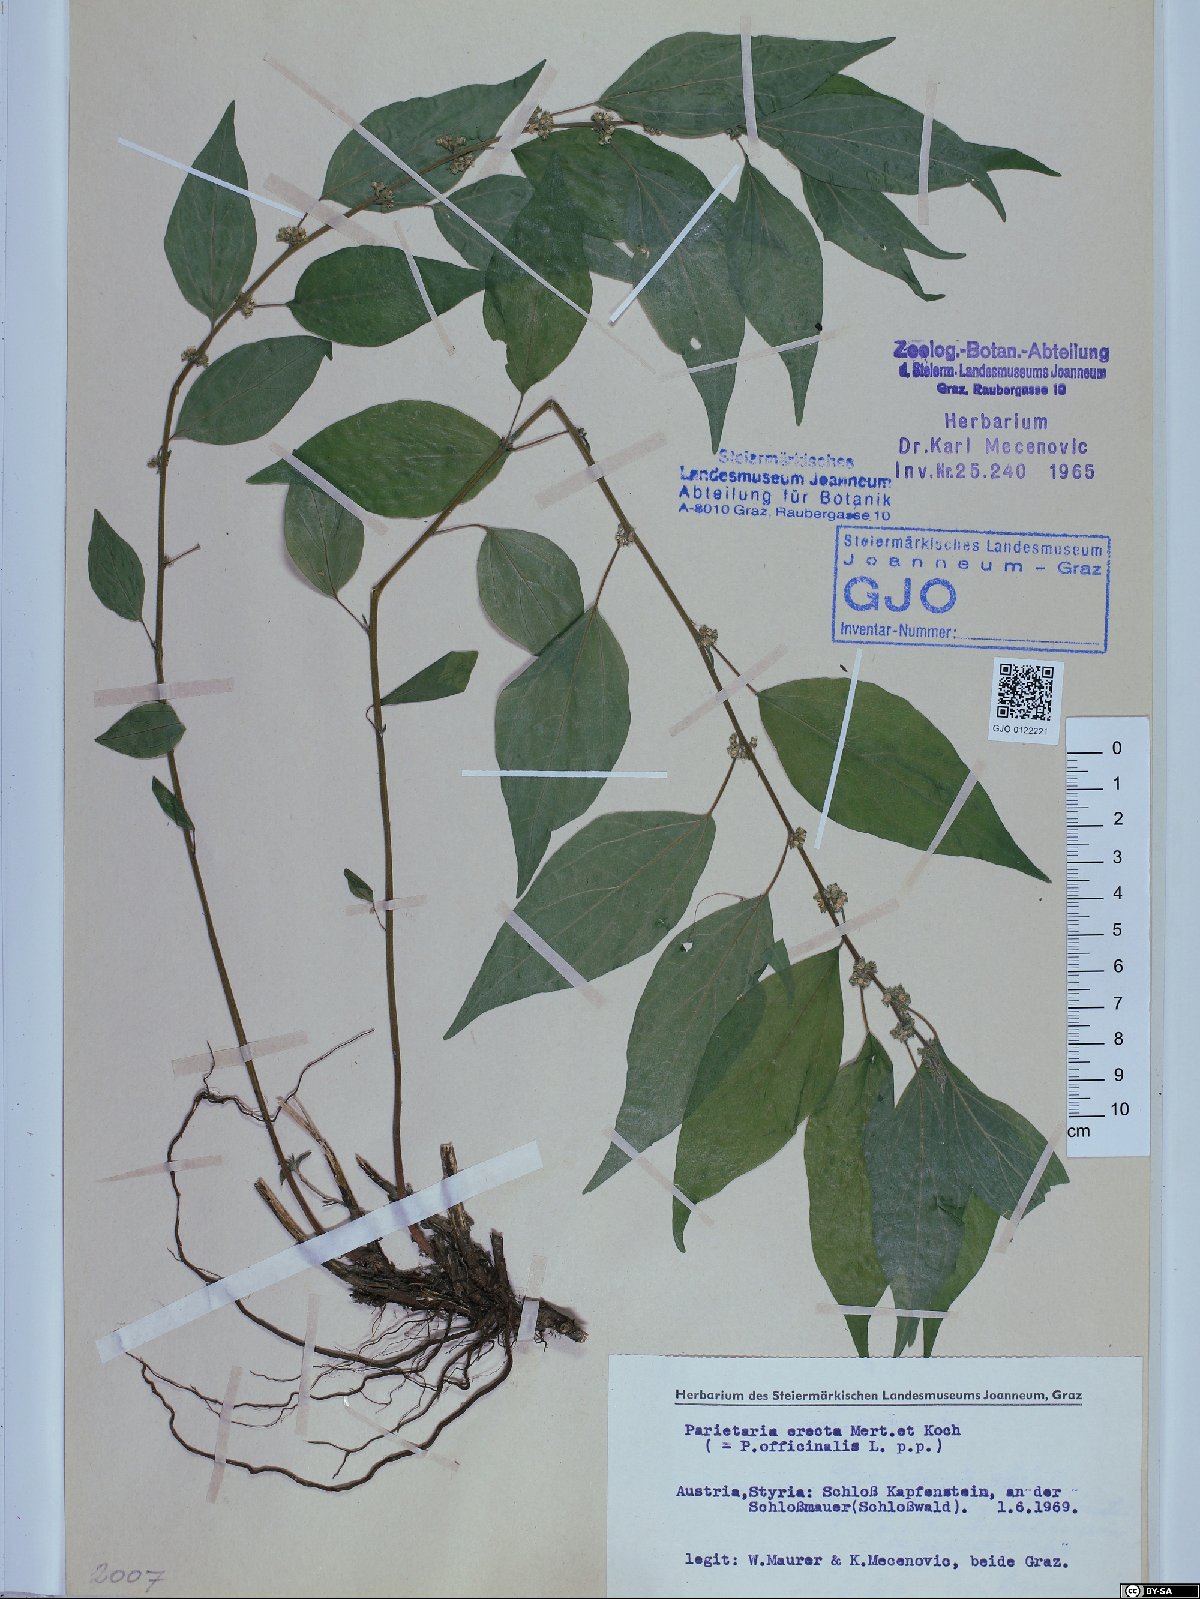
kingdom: Plantae
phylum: Tracheophyta
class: Magnoliopsida
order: Rosales
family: Urticaceae
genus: Parietaria
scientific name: Parietaria officinalis
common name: Eastern pellitory-of-the-wall
